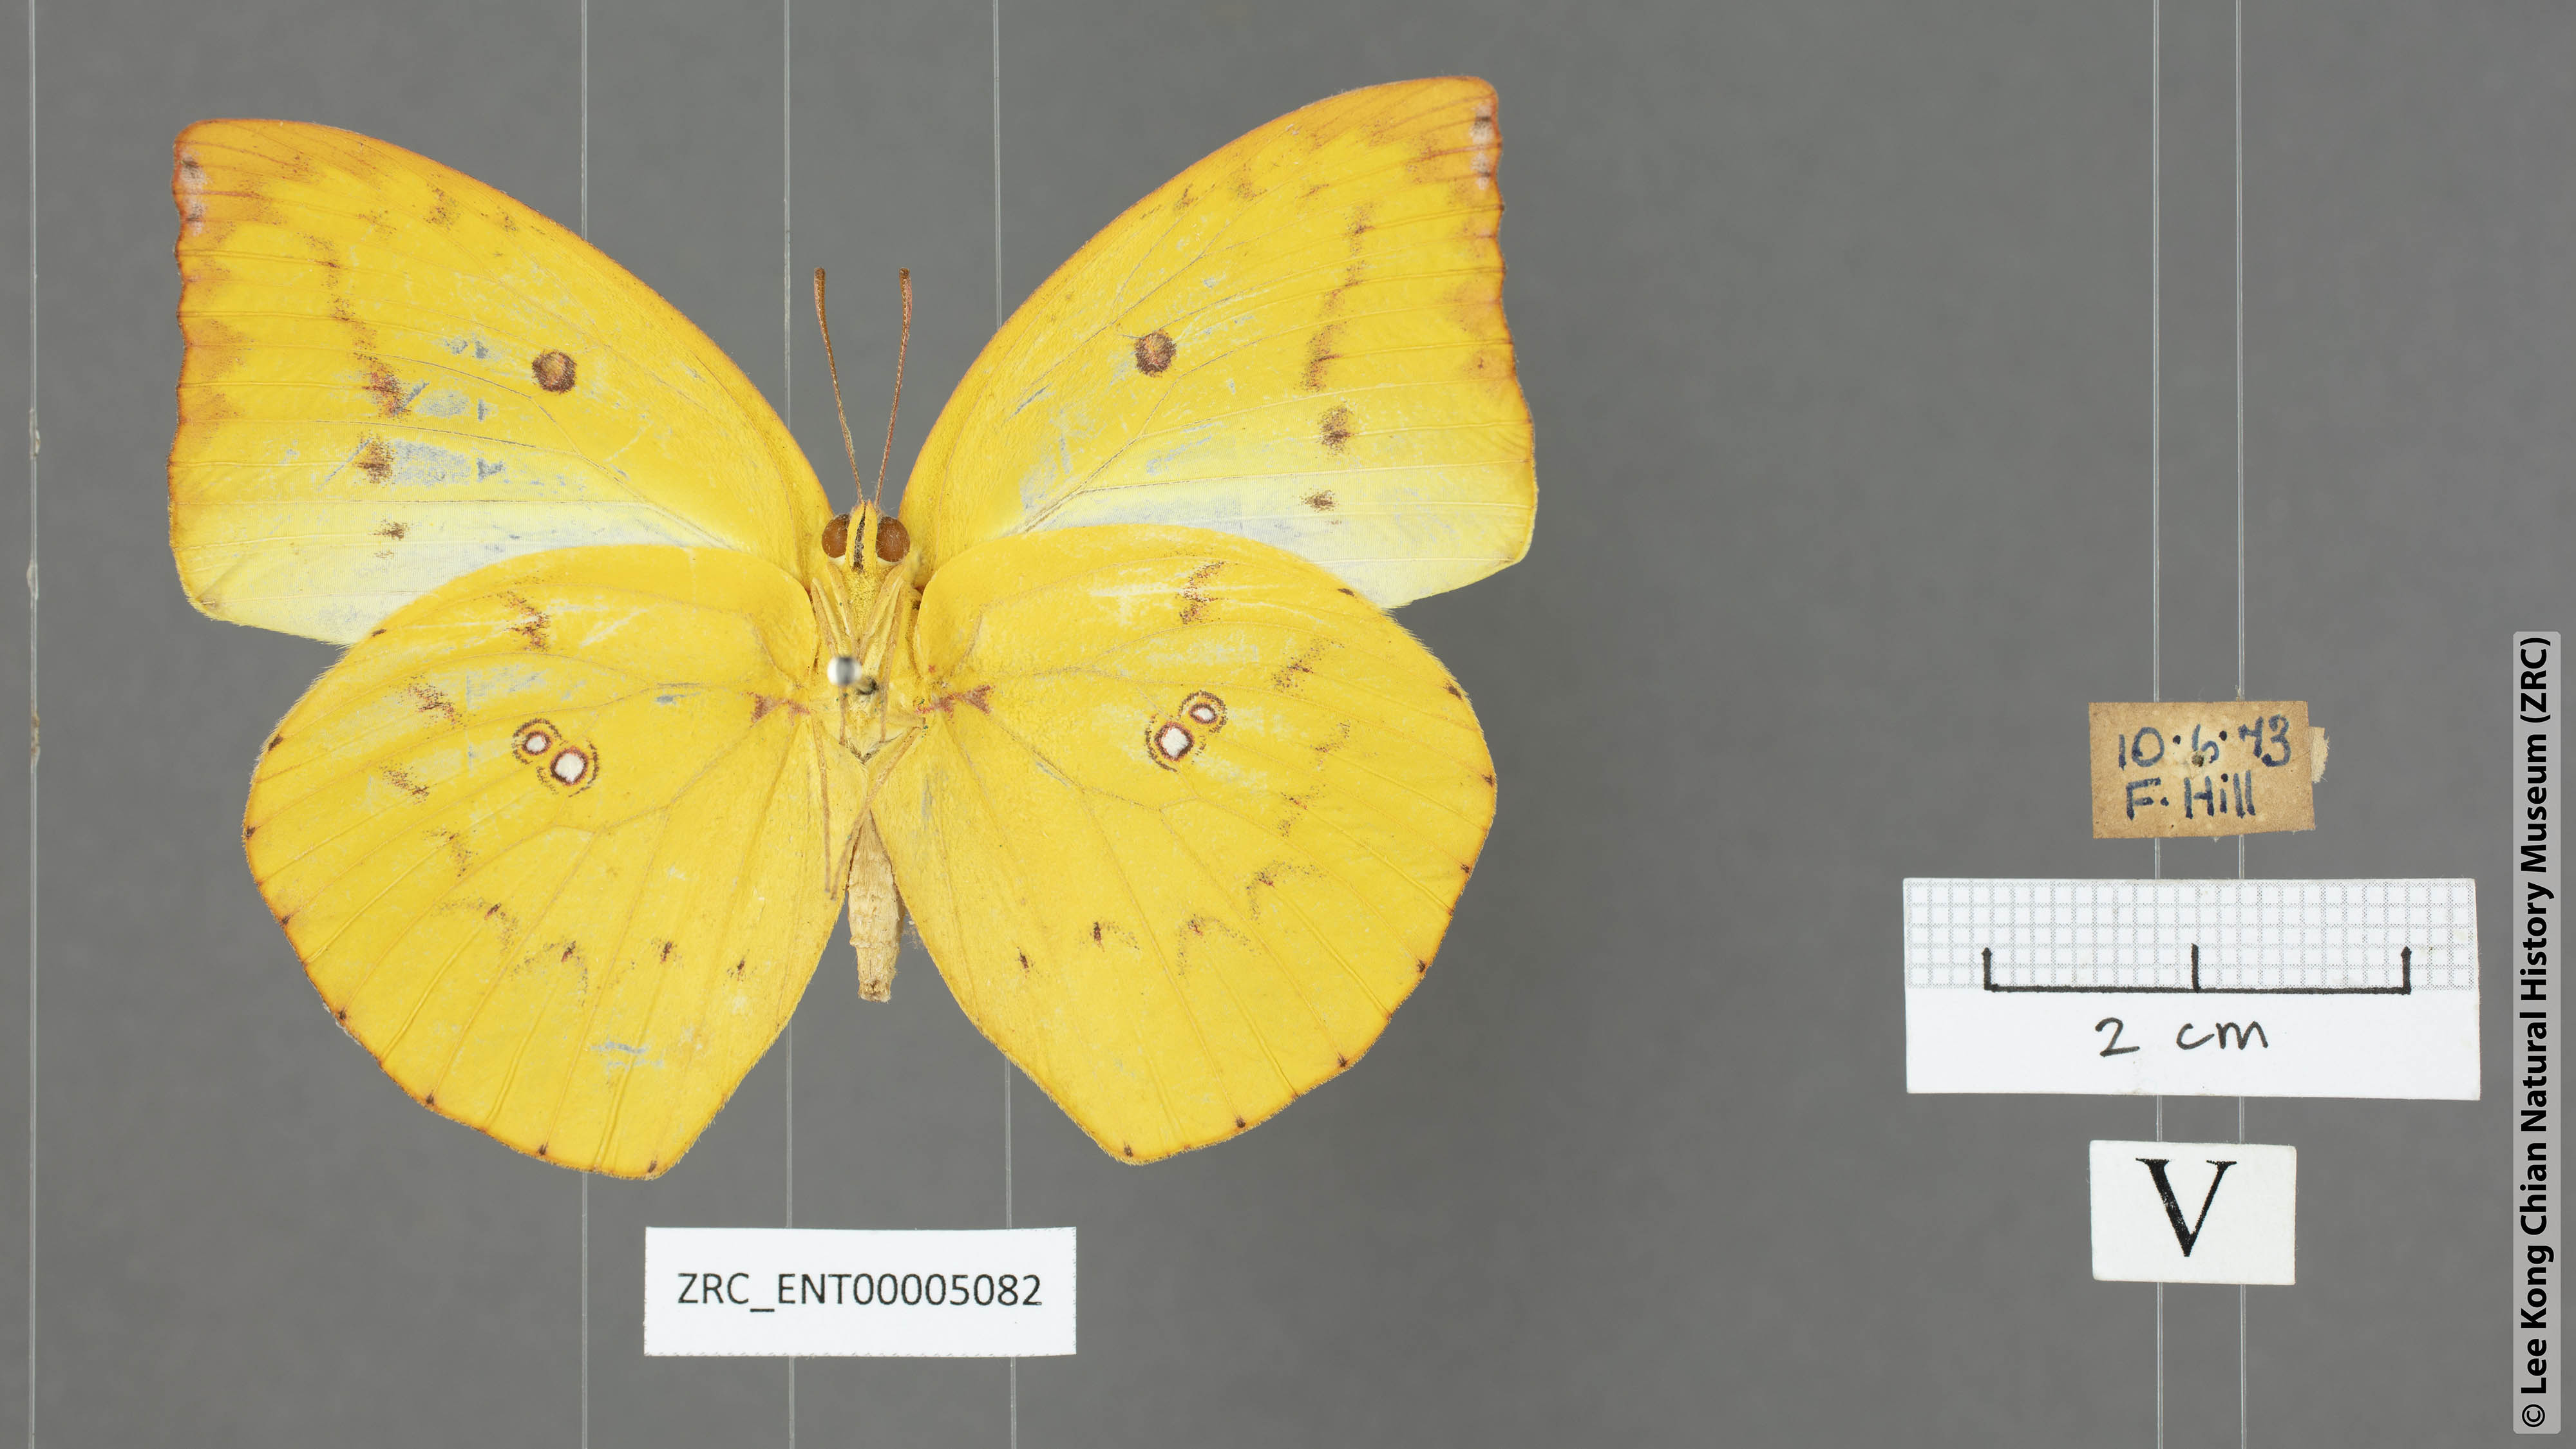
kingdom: Animalia
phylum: Arthropoda
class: Insecta
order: Lepidoptera
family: Pieridae
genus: Catopsilia
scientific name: Catopsilia pomona
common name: Common emigrant
